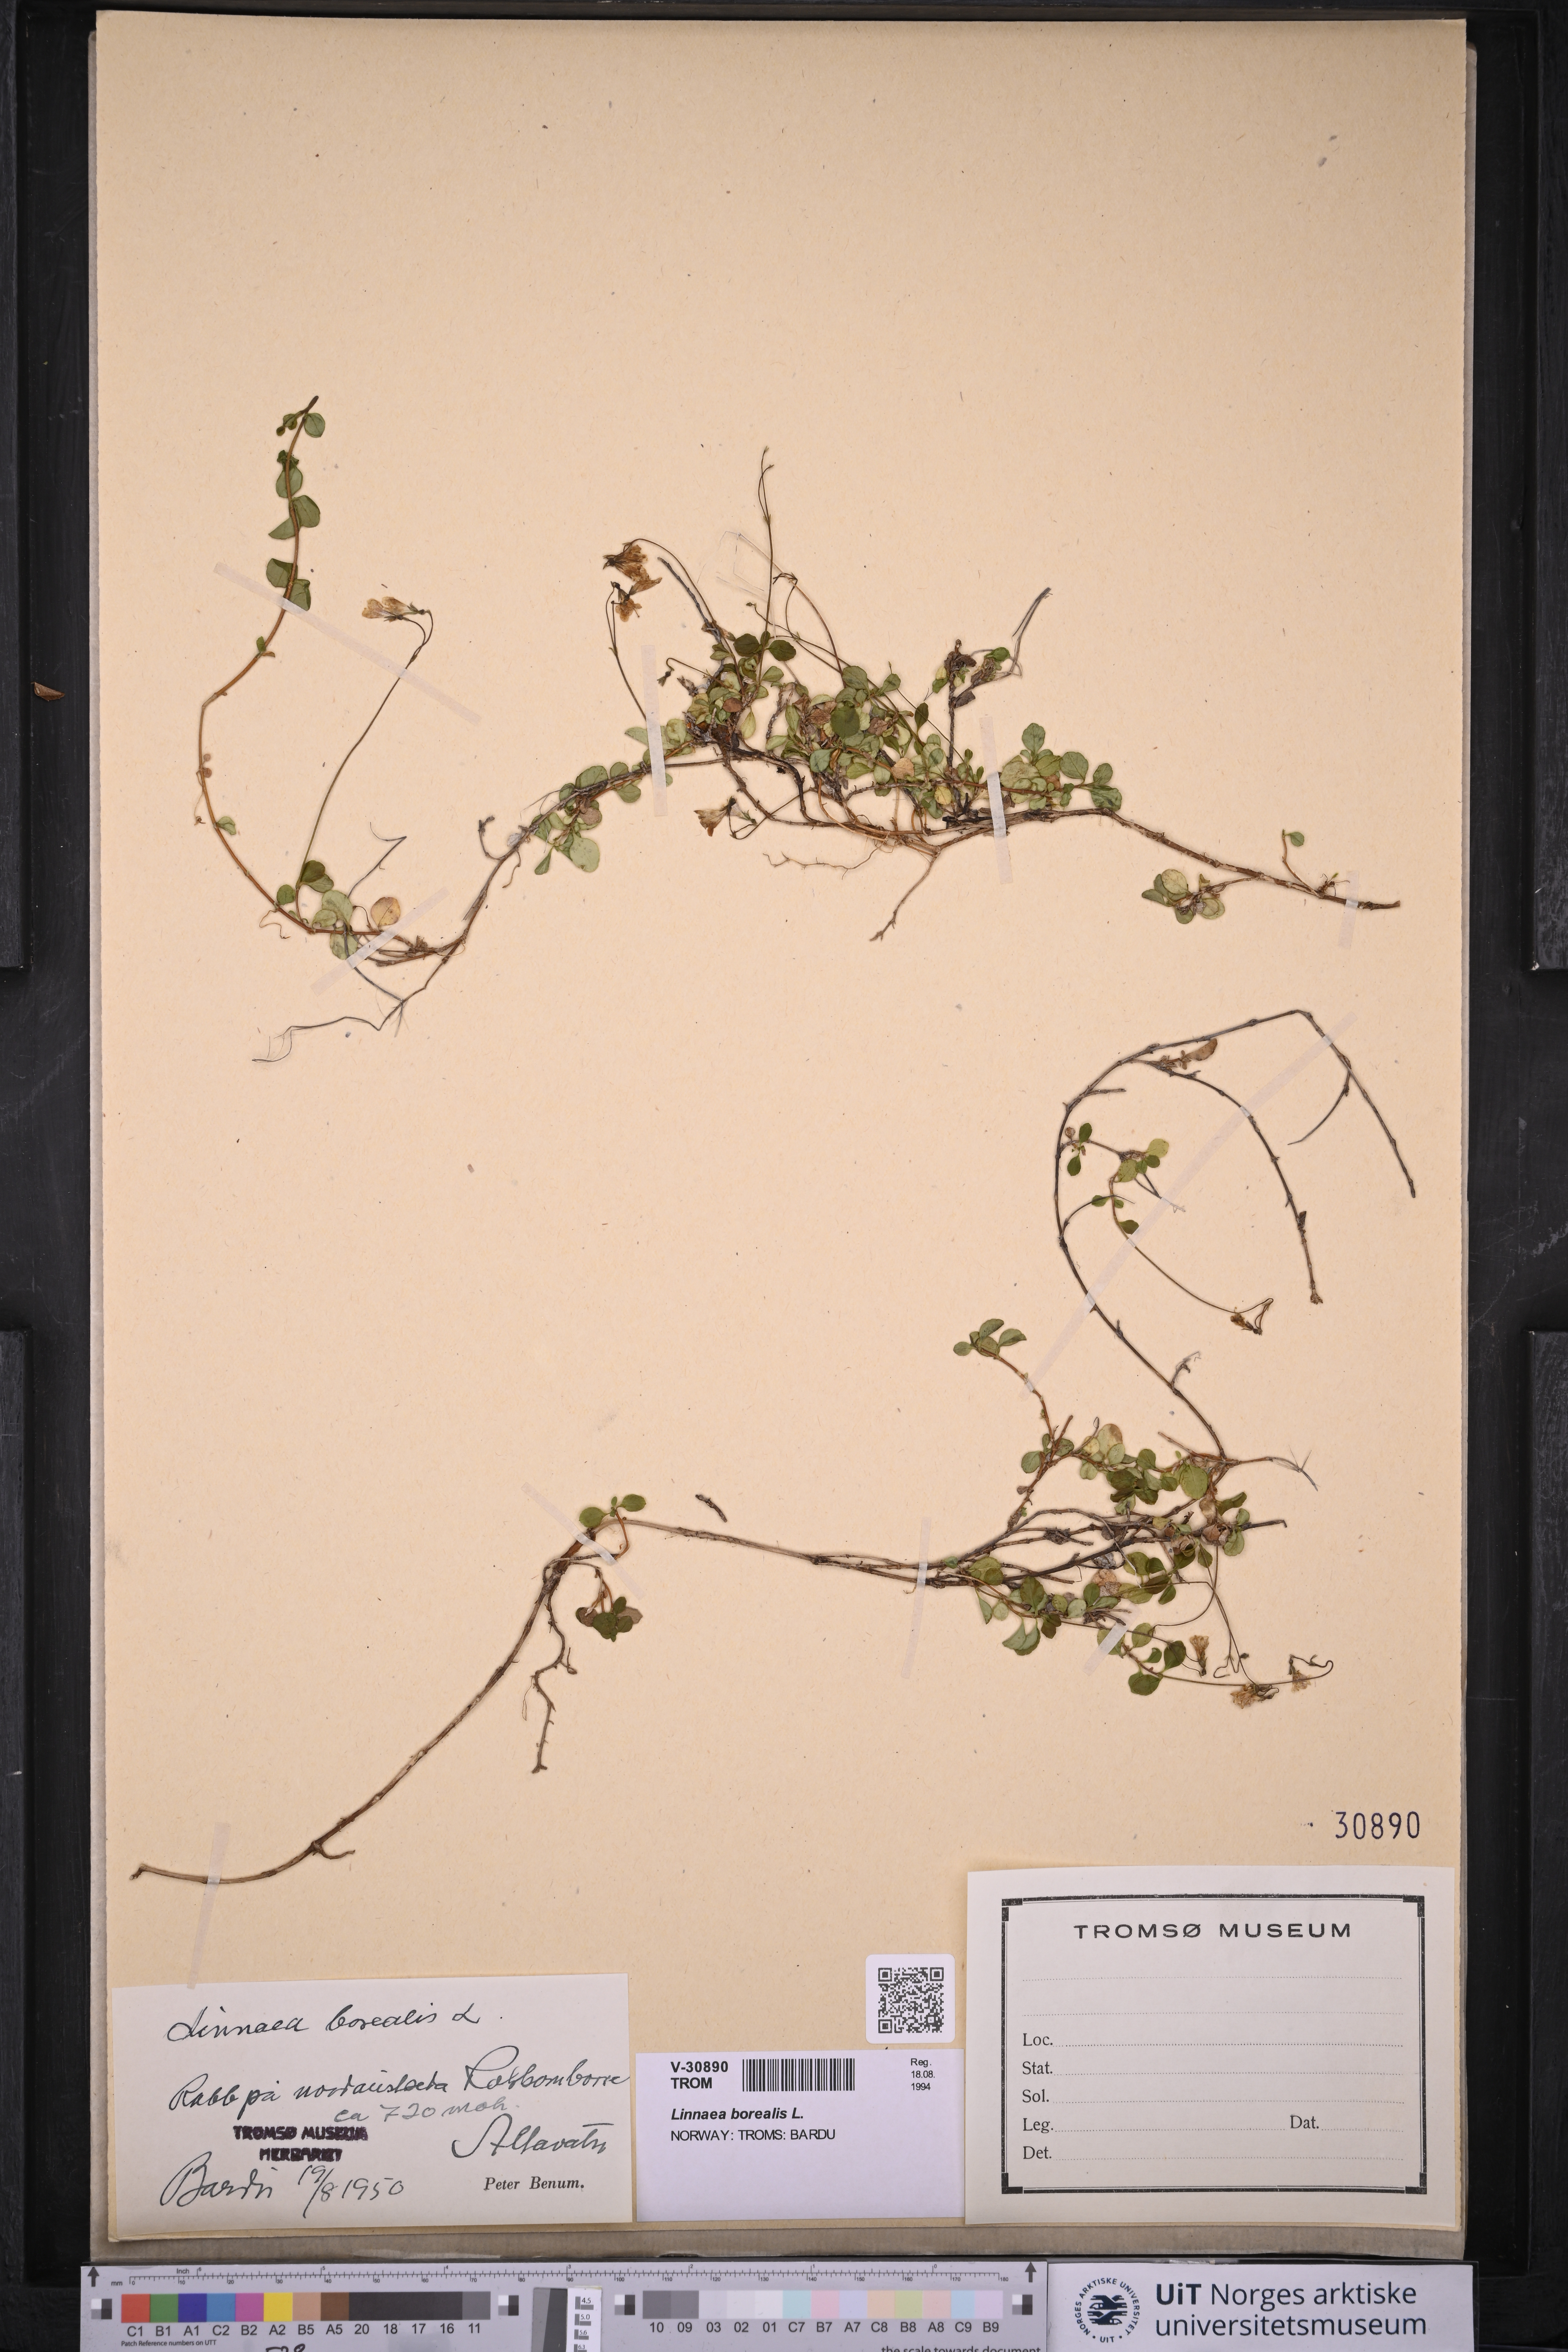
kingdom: Plantae
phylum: Tracheophyta
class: Magnoliopsida
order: Dipsacales
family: Caprifoliaceae
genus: Linnaea
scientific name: Linnaea borealis
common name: Twinflower
